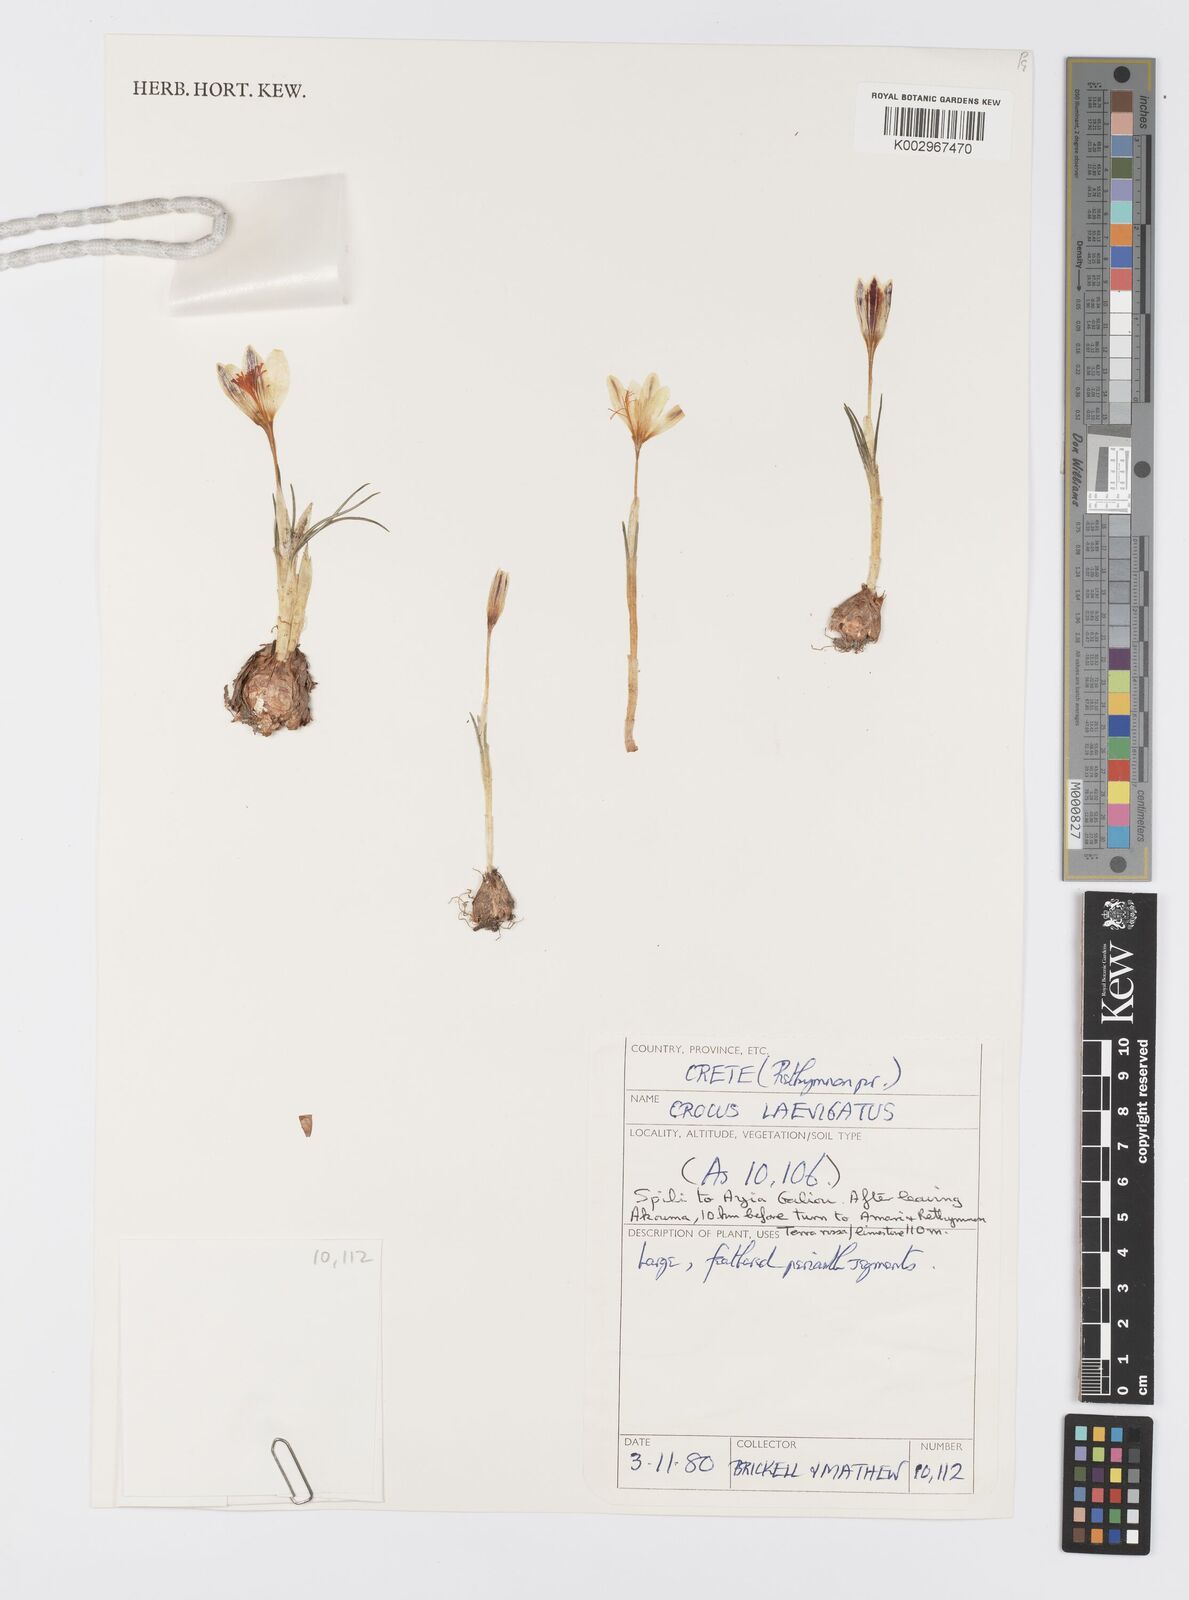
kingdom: Plantae
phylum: Tracheophyta
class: Liliopsida
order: Asparagales
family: Iridaceae
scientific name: Iridaceae
